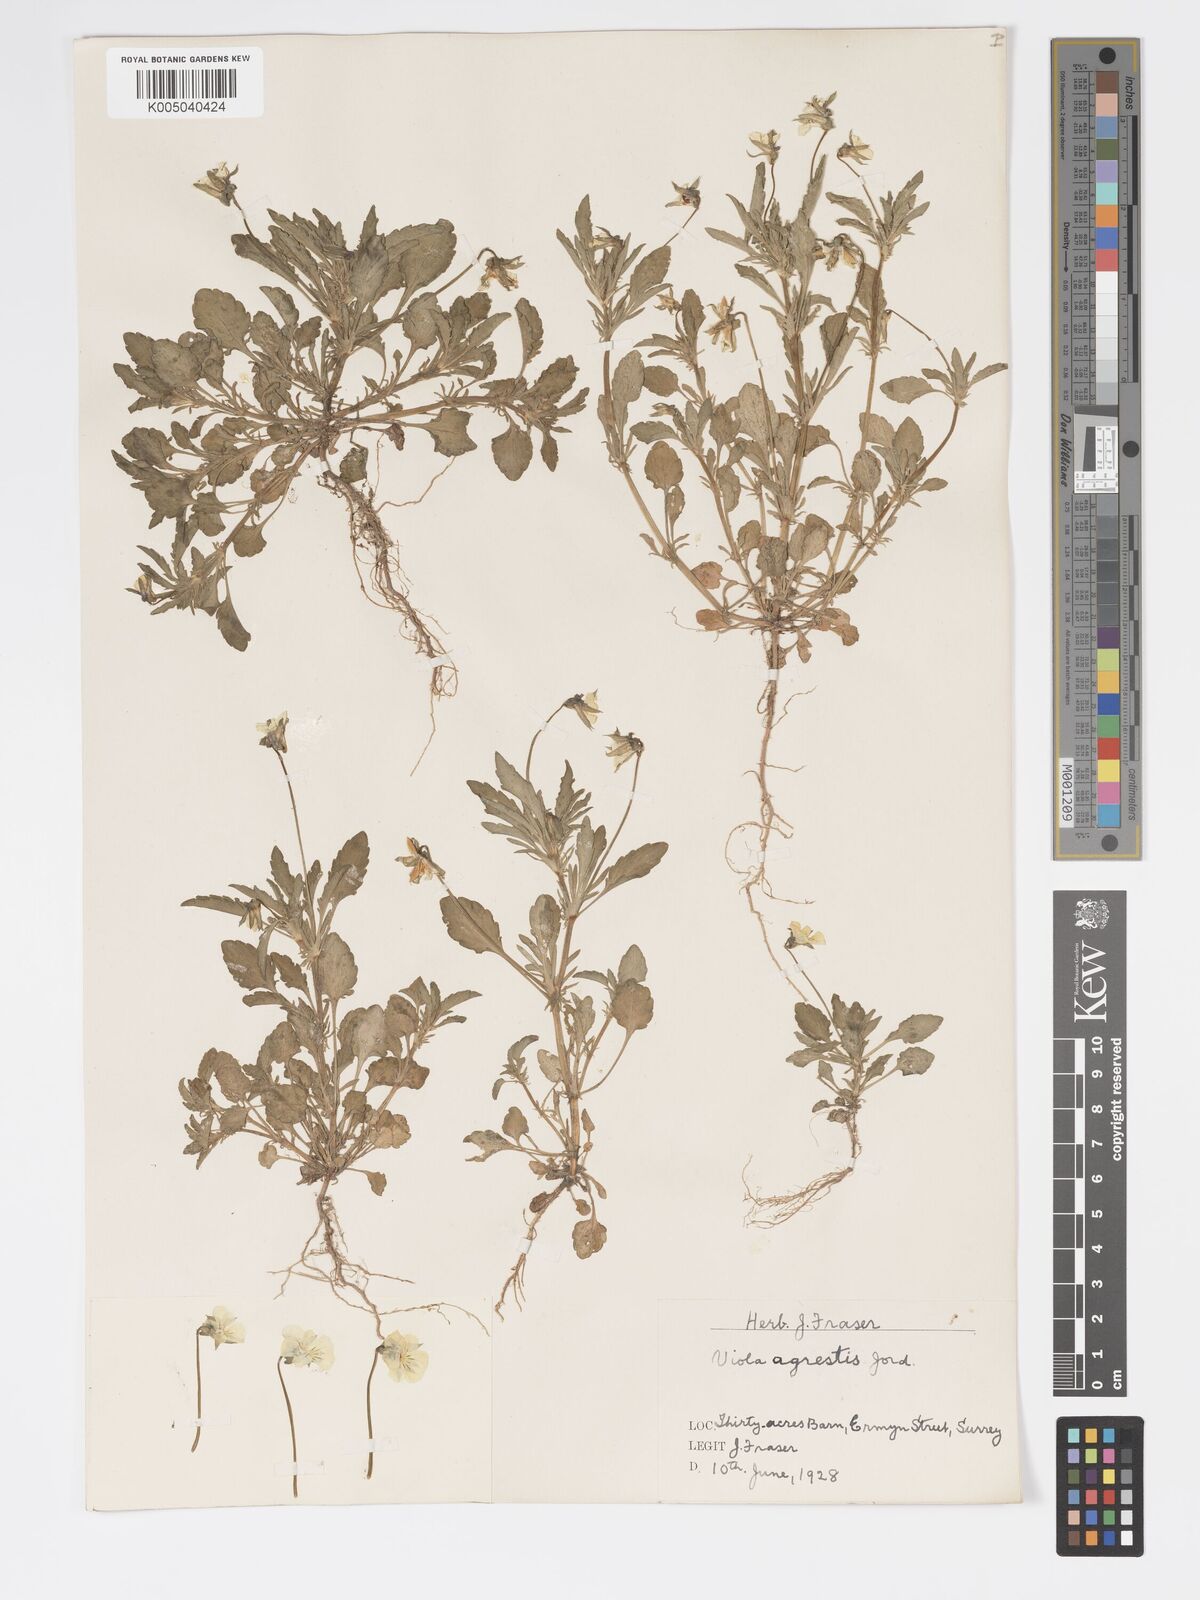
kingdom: Plantae
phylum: Tracheophyta
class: Magnoliopsida
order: Malpighiales
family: Violaceae
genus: Viola
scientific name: Viola arvensis
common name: Field pansy
